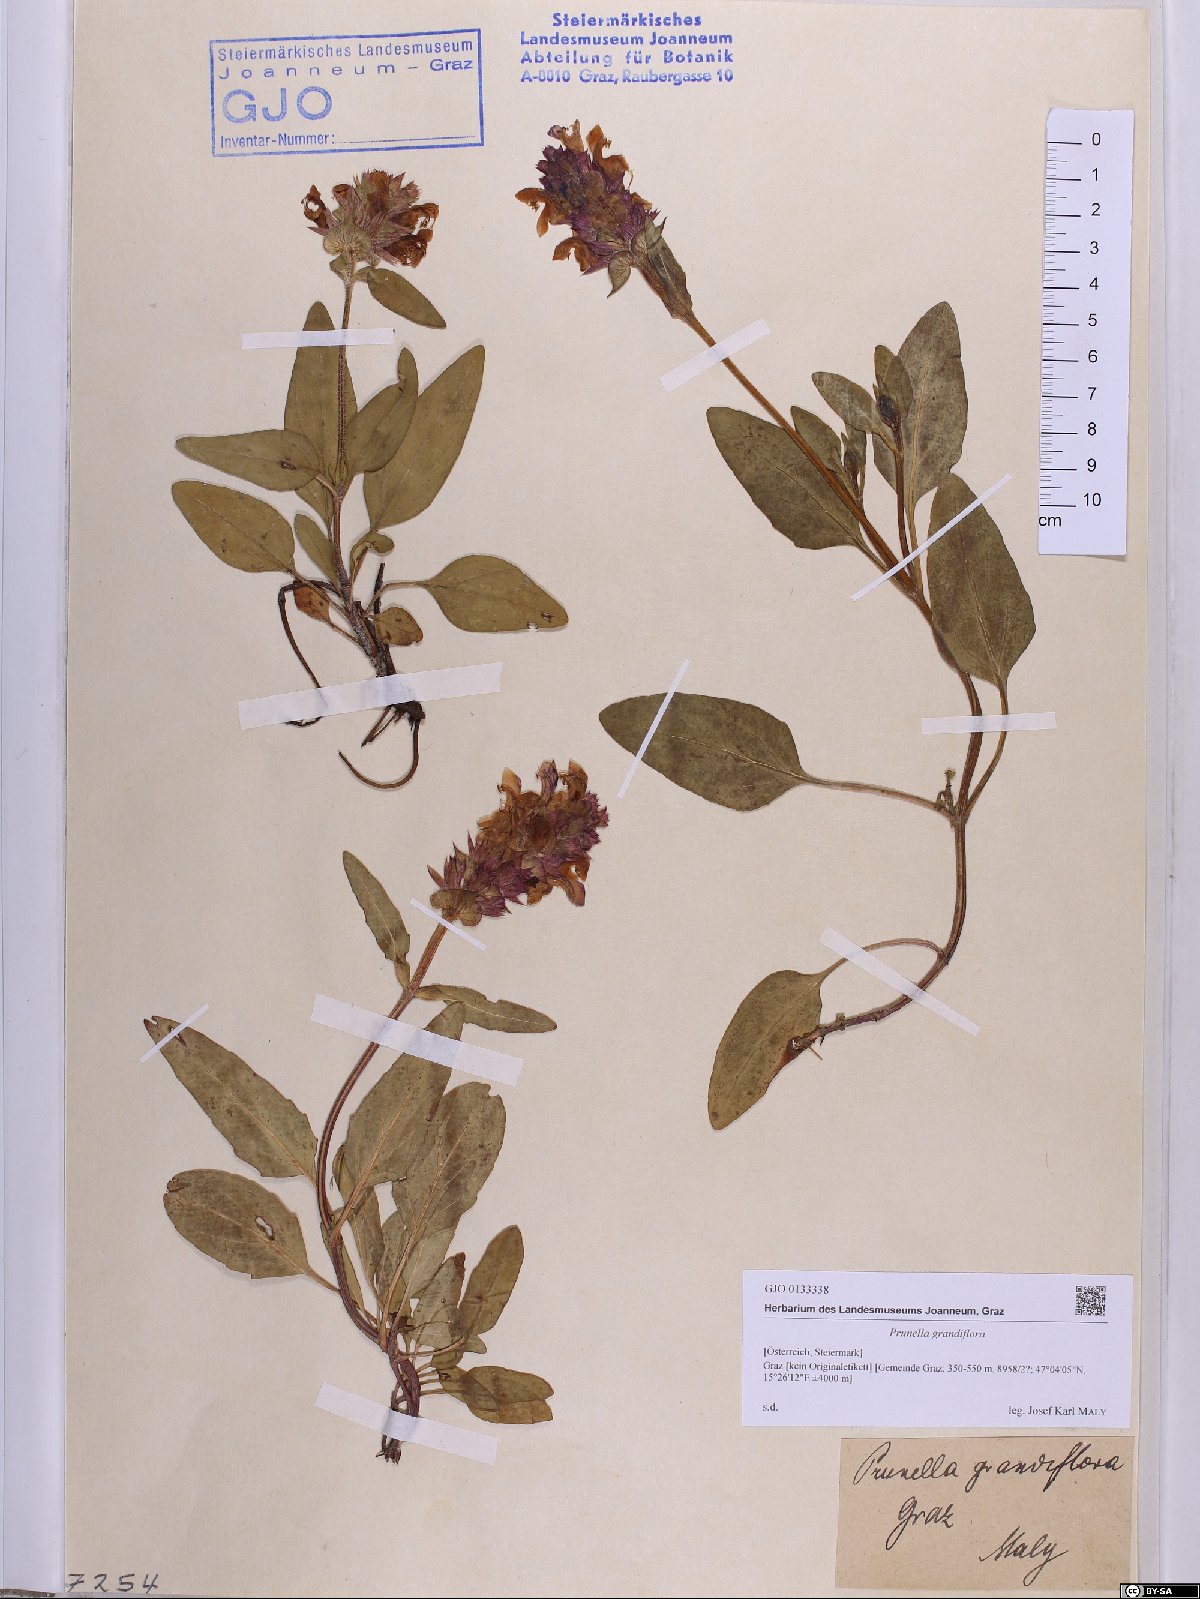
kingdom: Plantae
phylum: Tracheophyta
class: Magnoliopsida
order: Lamiales
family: Lamiaceae
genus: Prunella
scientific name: Prunella grandiflora
